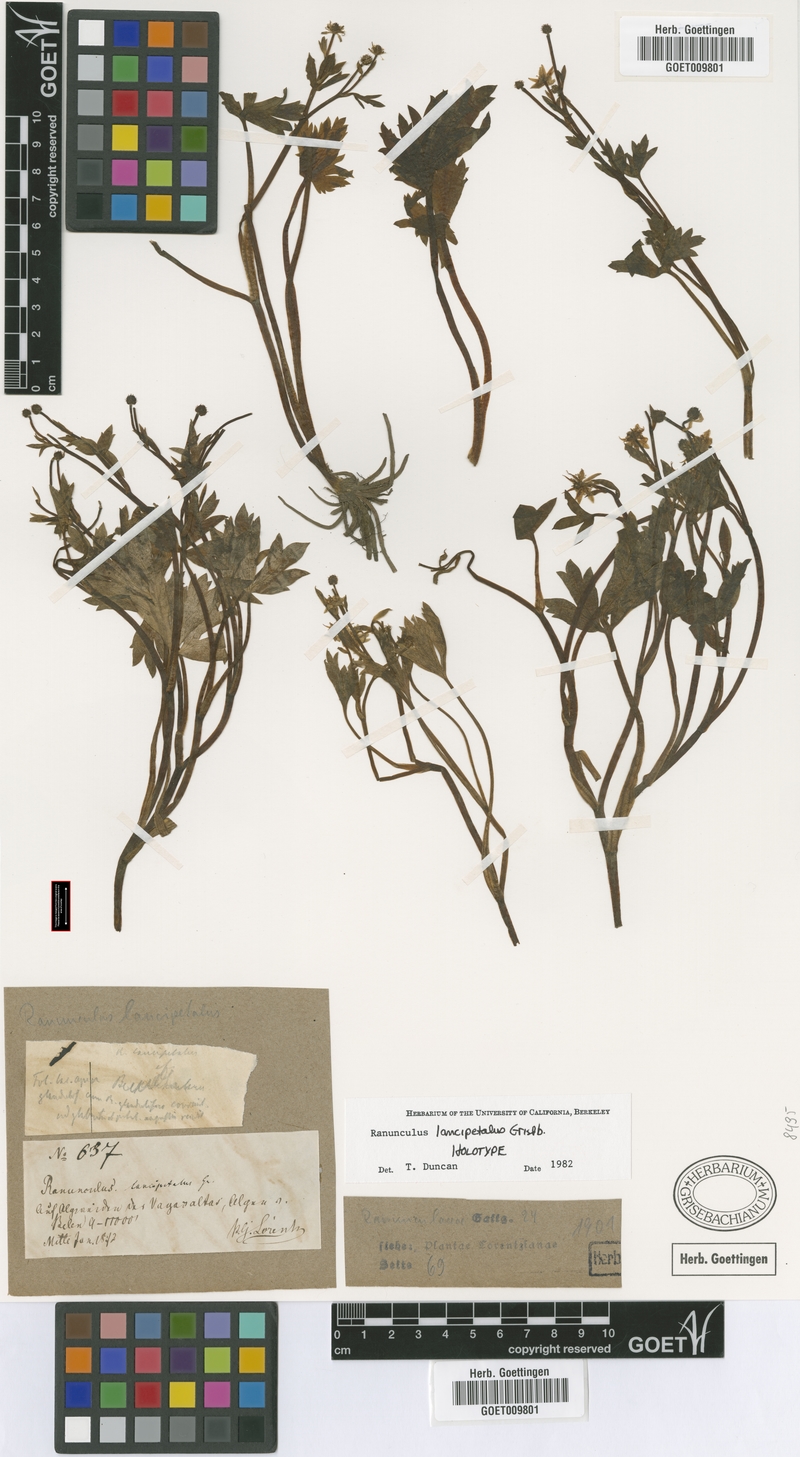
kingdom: Plantae
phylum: Tracheophyta
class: Magnoliopsida
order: Ranunculales
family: Ranunculaceae
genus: Ranunculus
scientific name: Ranunculus lancipetalus
